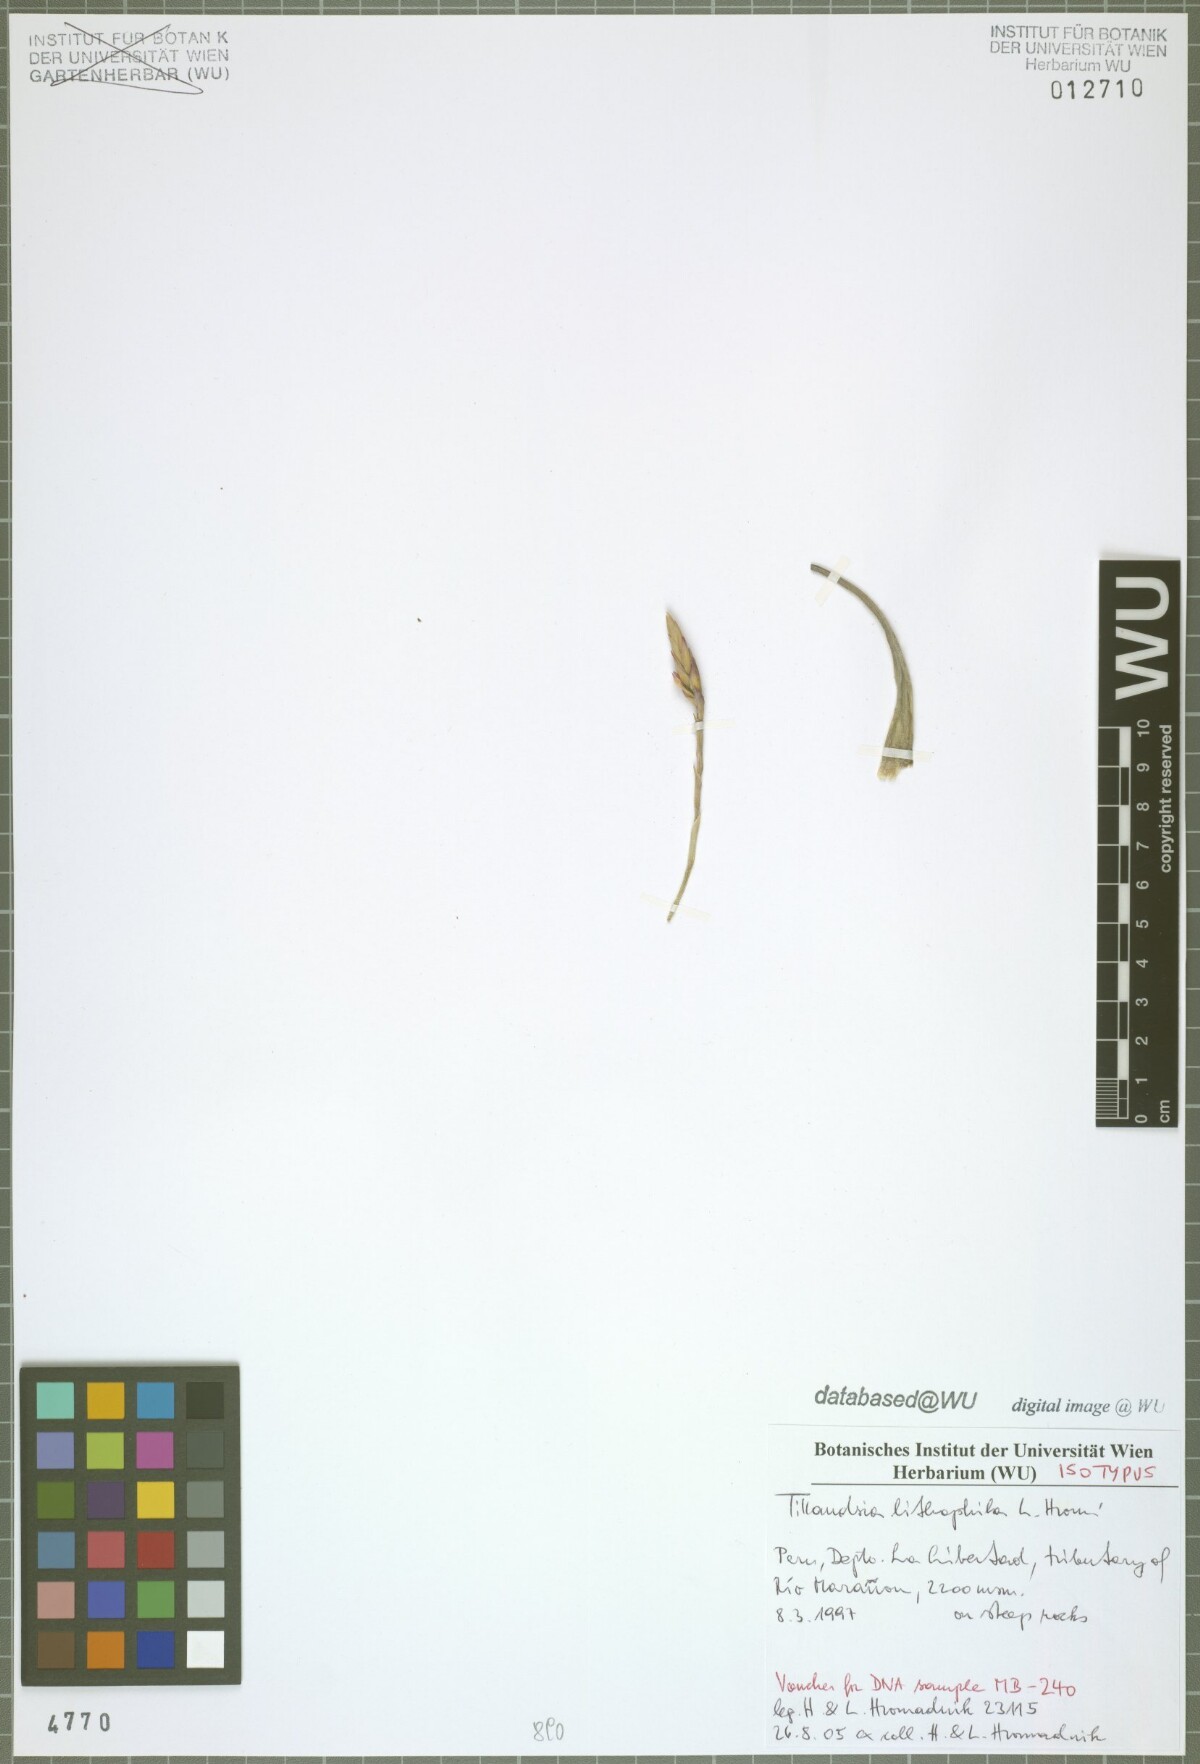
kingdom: Plantae
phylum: Tracheophyta
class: Liliopsida
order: Poales
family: Bromeliaceae
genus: Tillandsia
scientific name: Tillandsia lithophila
